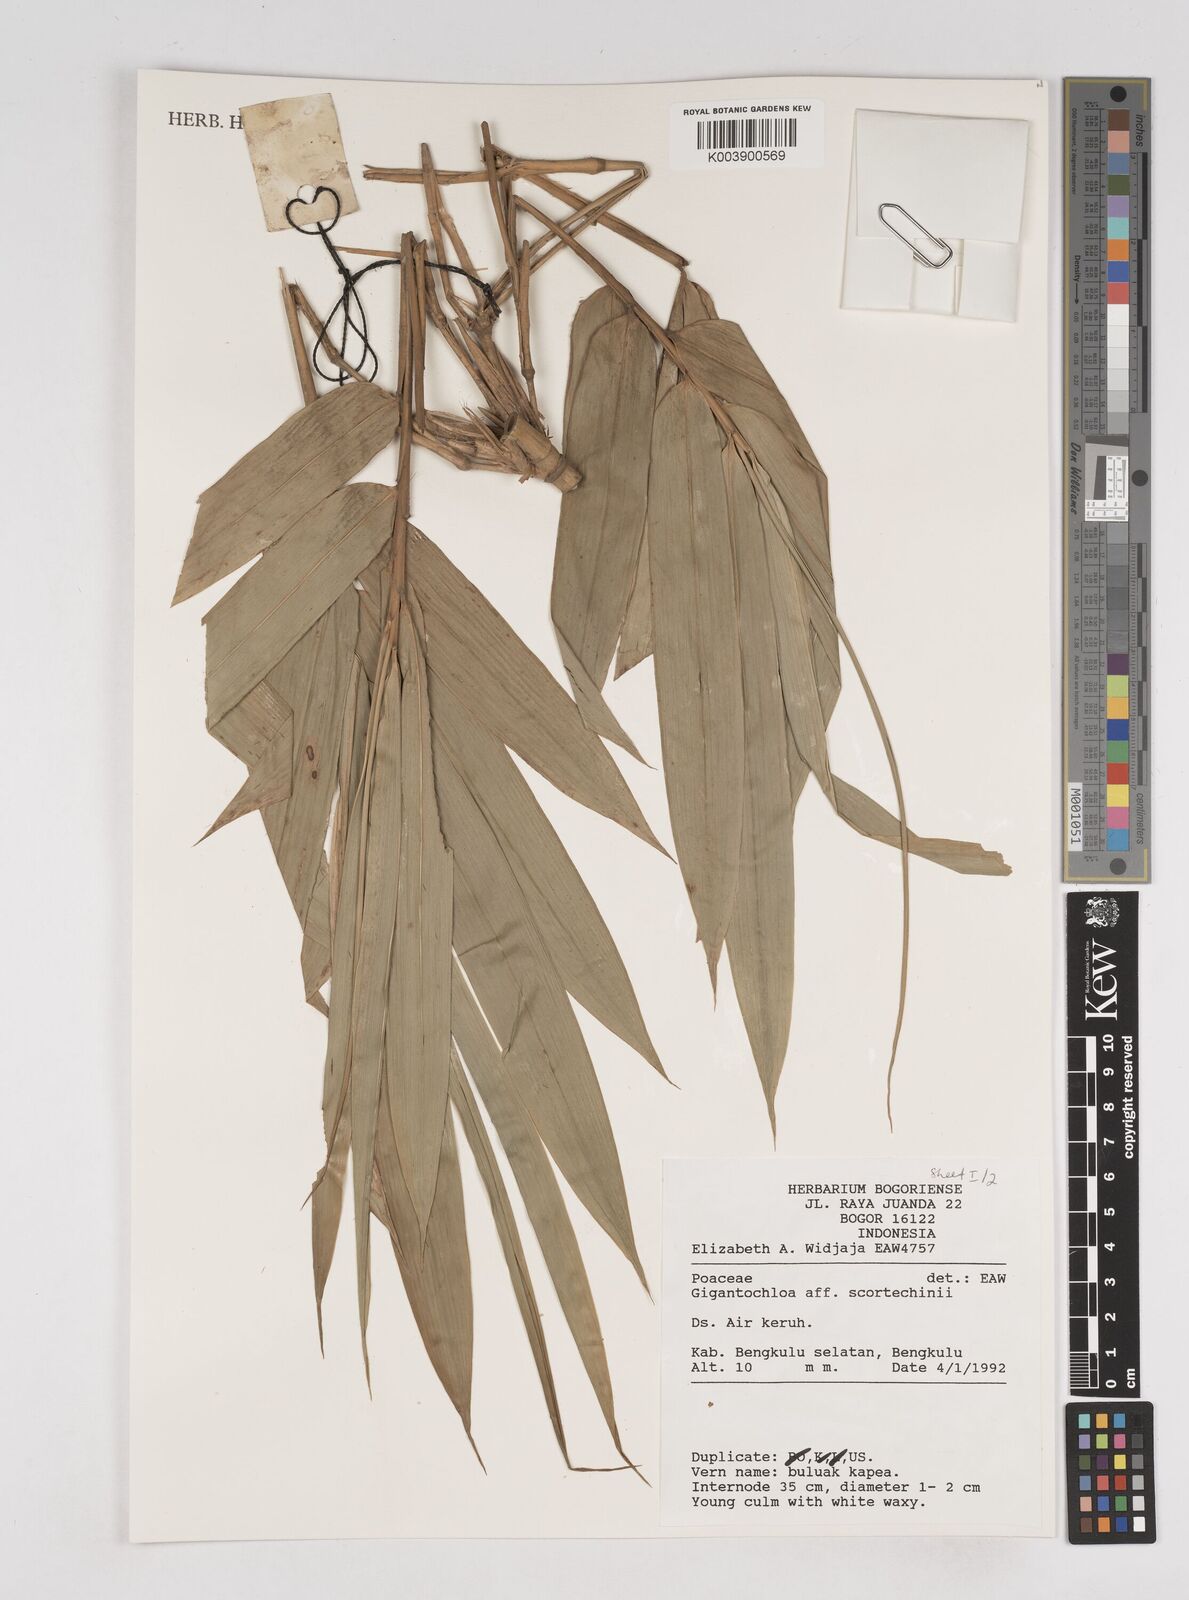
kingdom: Plantae
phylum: Tracheophyta
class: Liliopsida
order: Poales
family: Poaceae
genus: Gigantochloa
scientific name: Gigantochloa scortechinii
